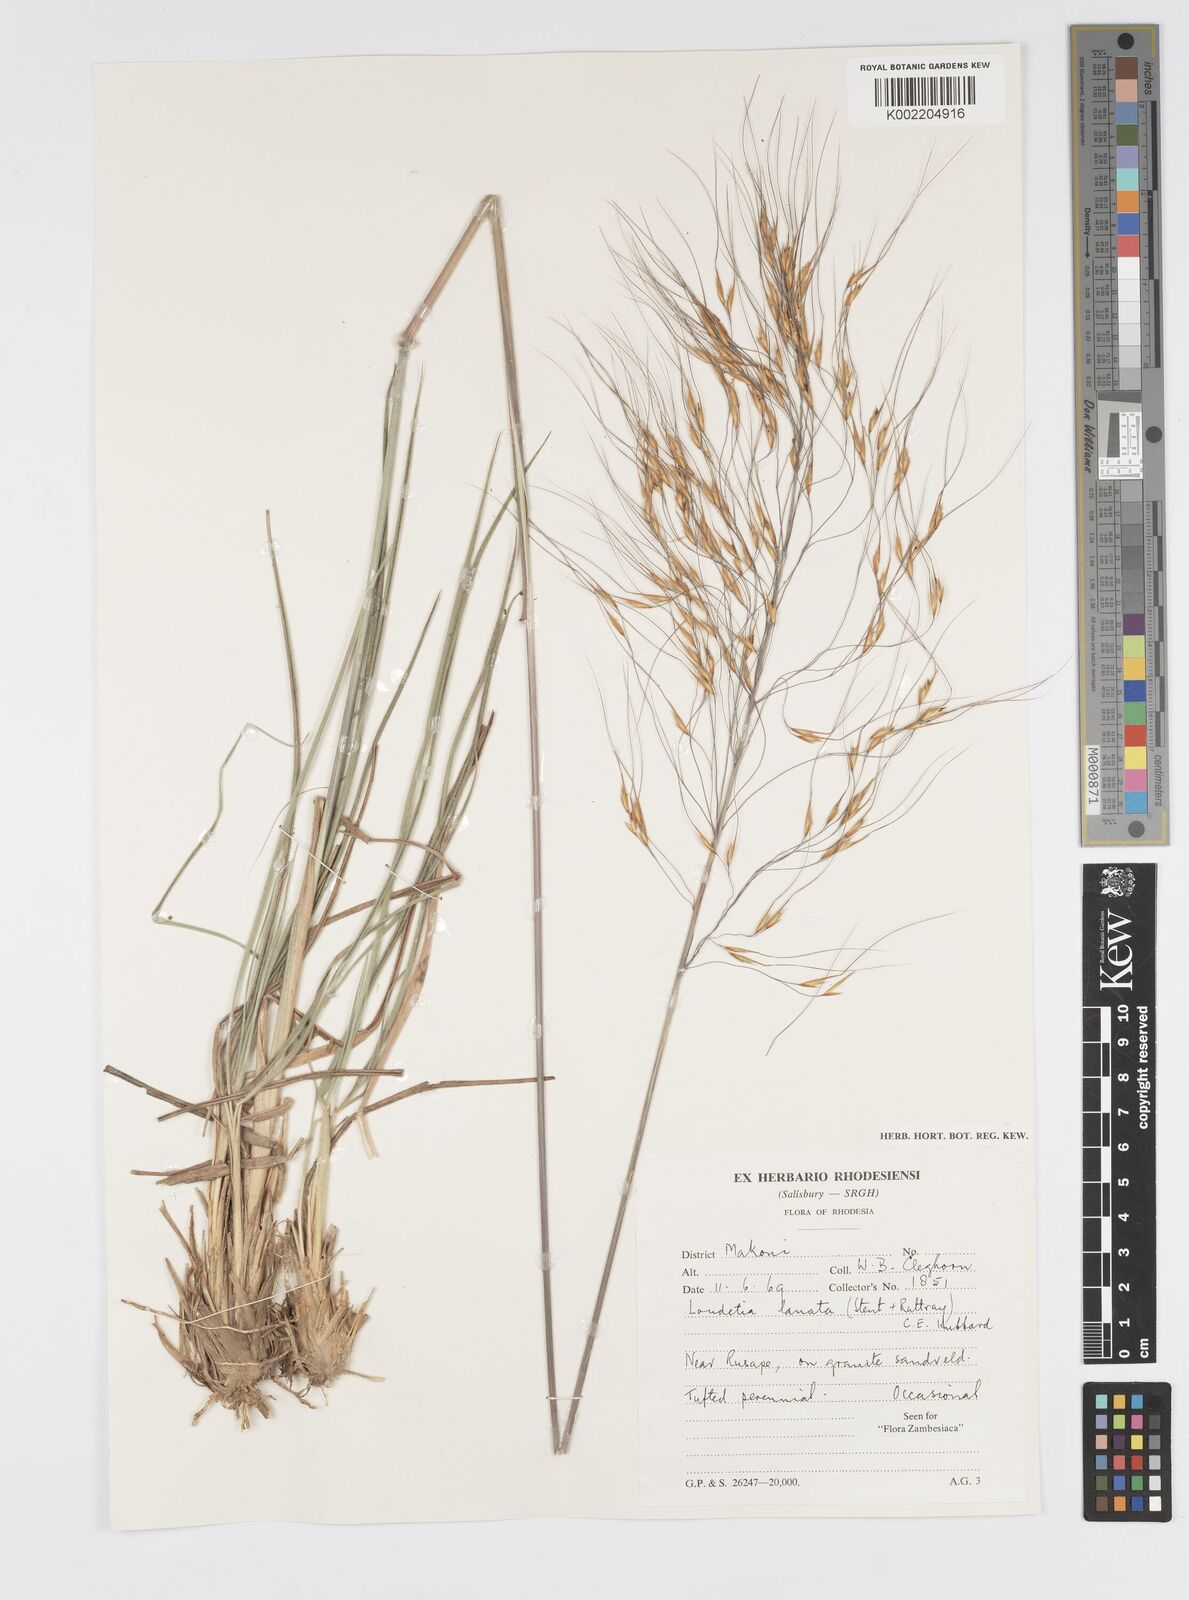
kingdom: Plantae
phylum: Tracheophyta
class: Liliopsida
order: Poales
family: Poaceae
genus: Loudetia
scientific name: Loudetia lanata
